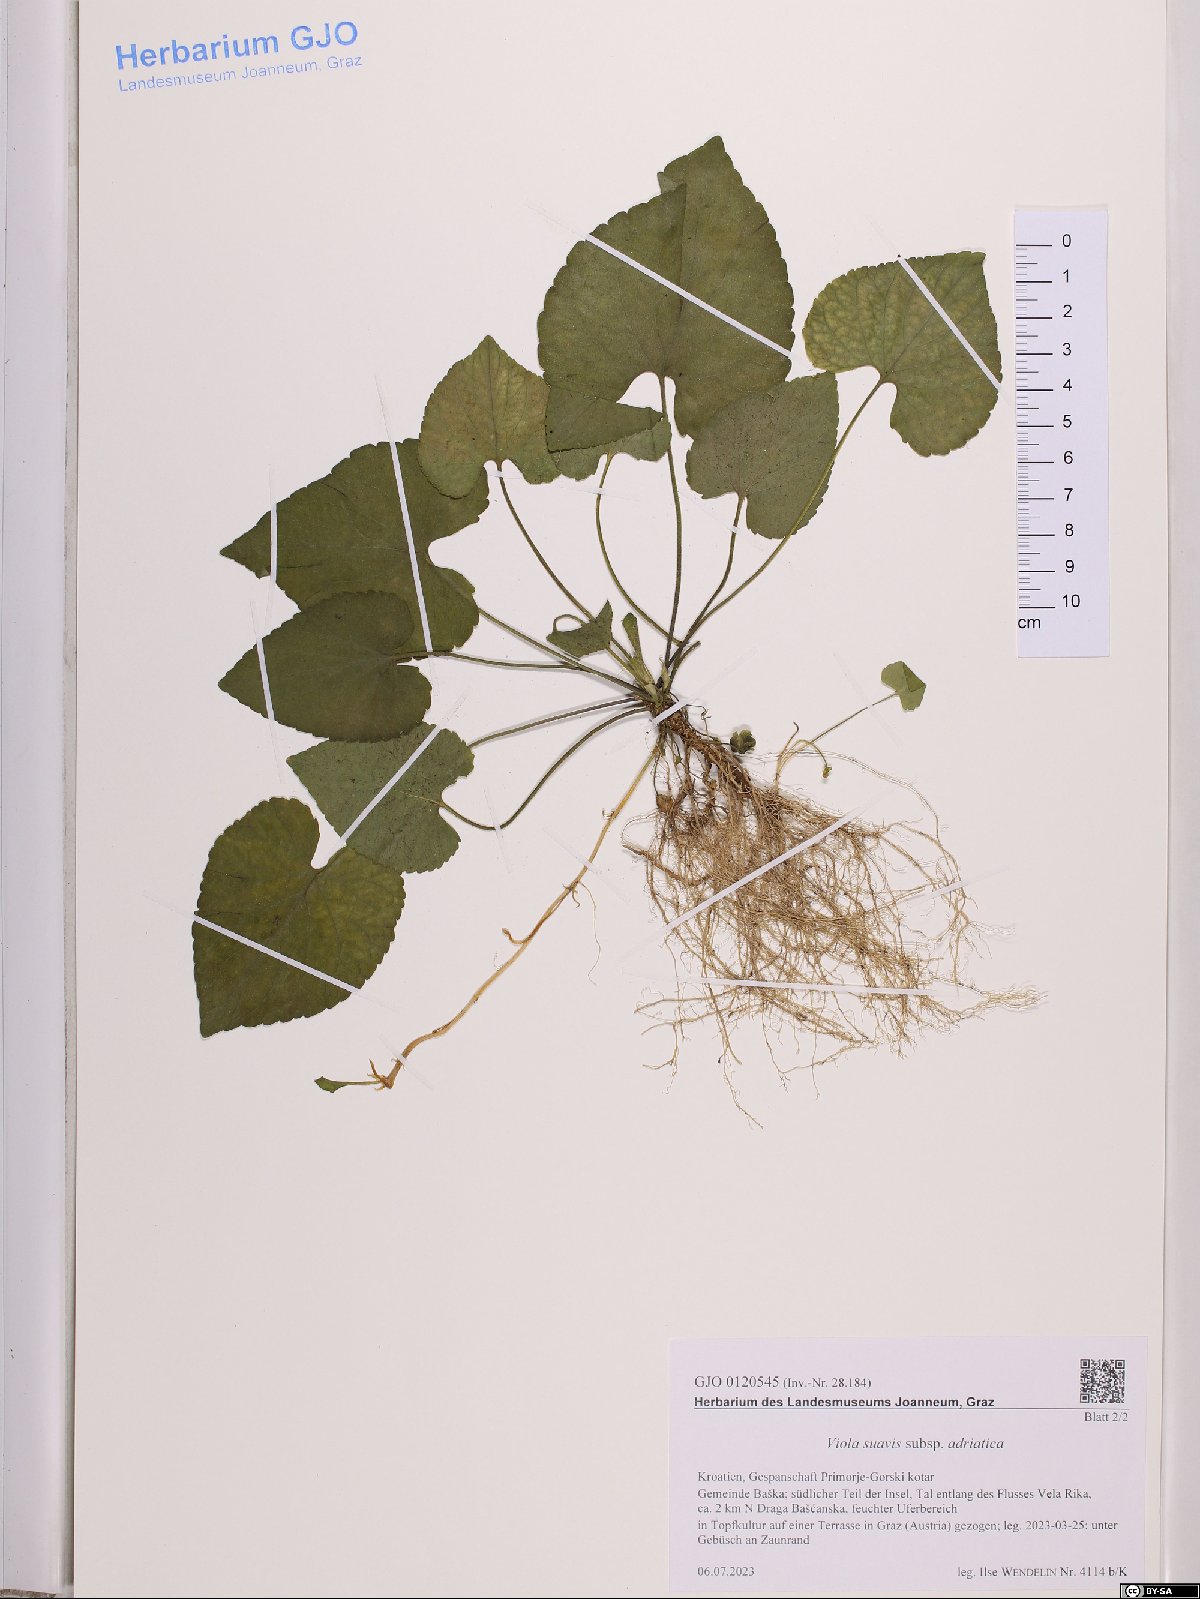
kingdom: Plantae
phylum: Tracheophyta
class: Magnoliopsida
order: Malpighiales
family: Violaceae
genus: Viola
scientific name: Viola suavis
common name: Russian violet
